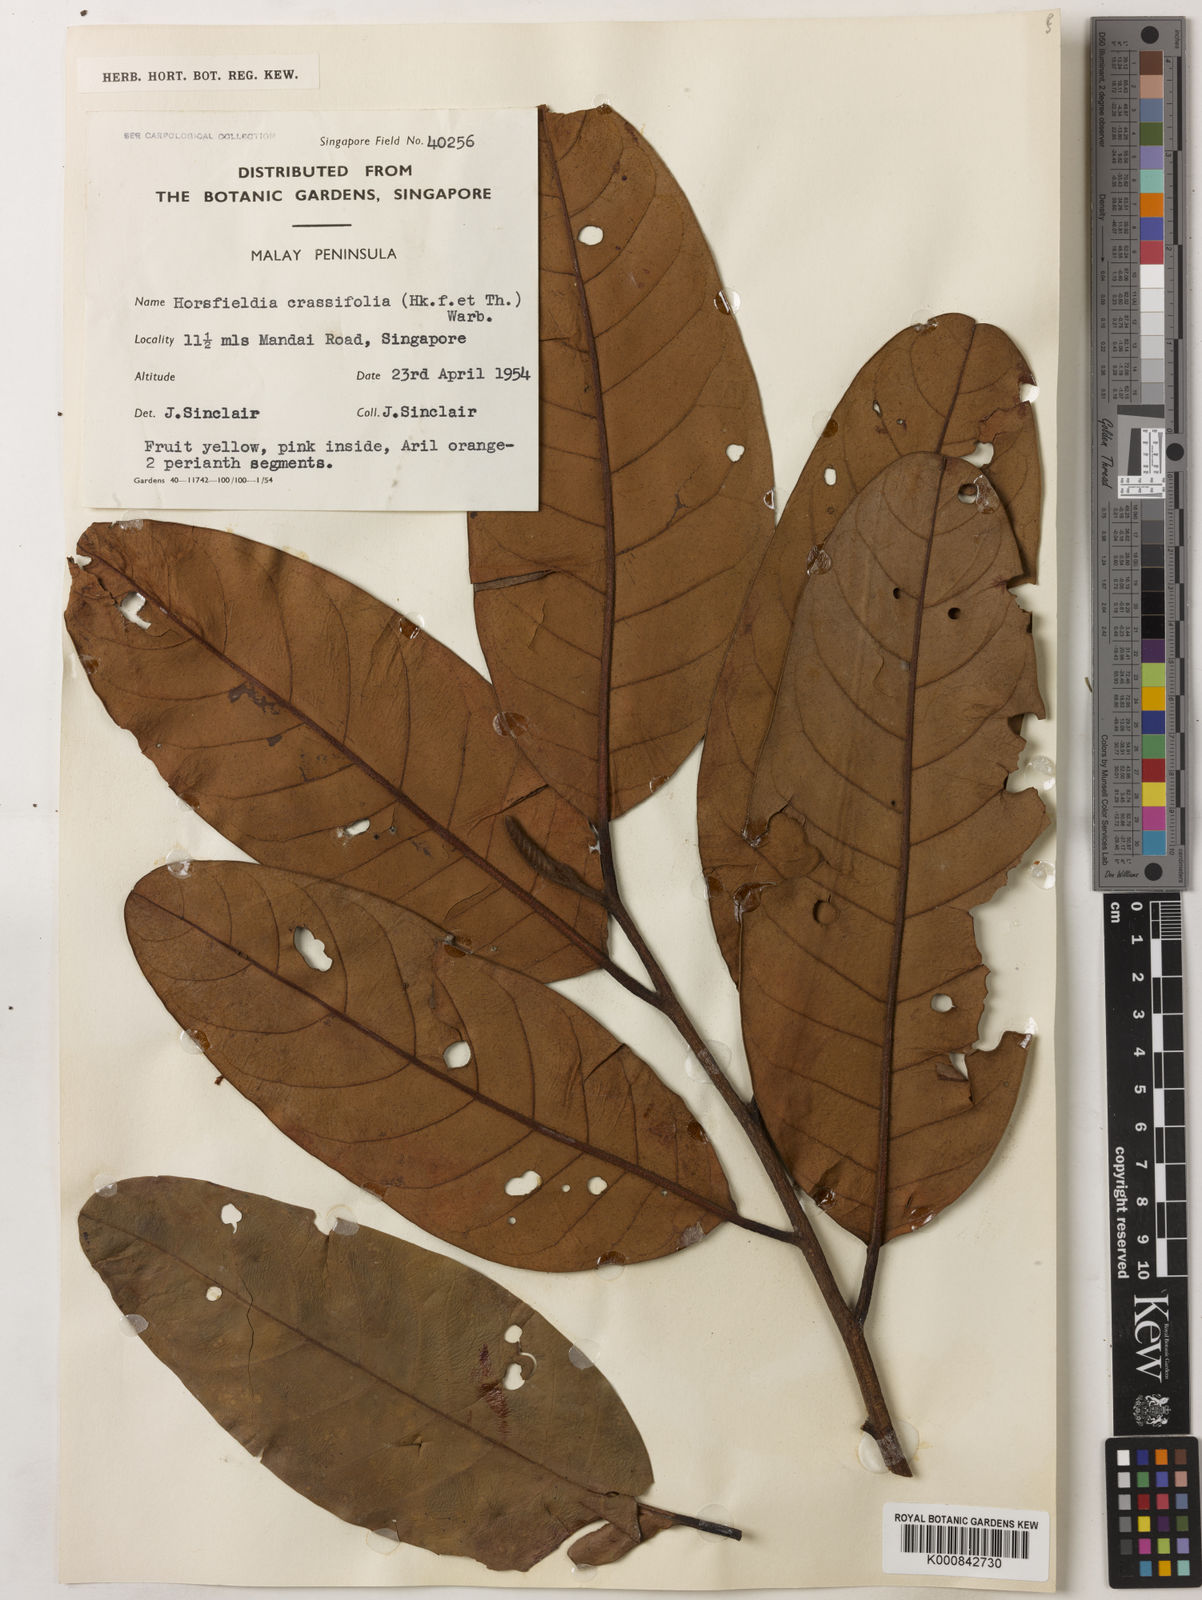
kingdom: Plantae
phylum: Tracheophyta
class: Magnoliopsida
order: Magnoliales
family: Myristicaceae
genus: Horsfieldia
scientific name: Horsfieldia crassifolia
